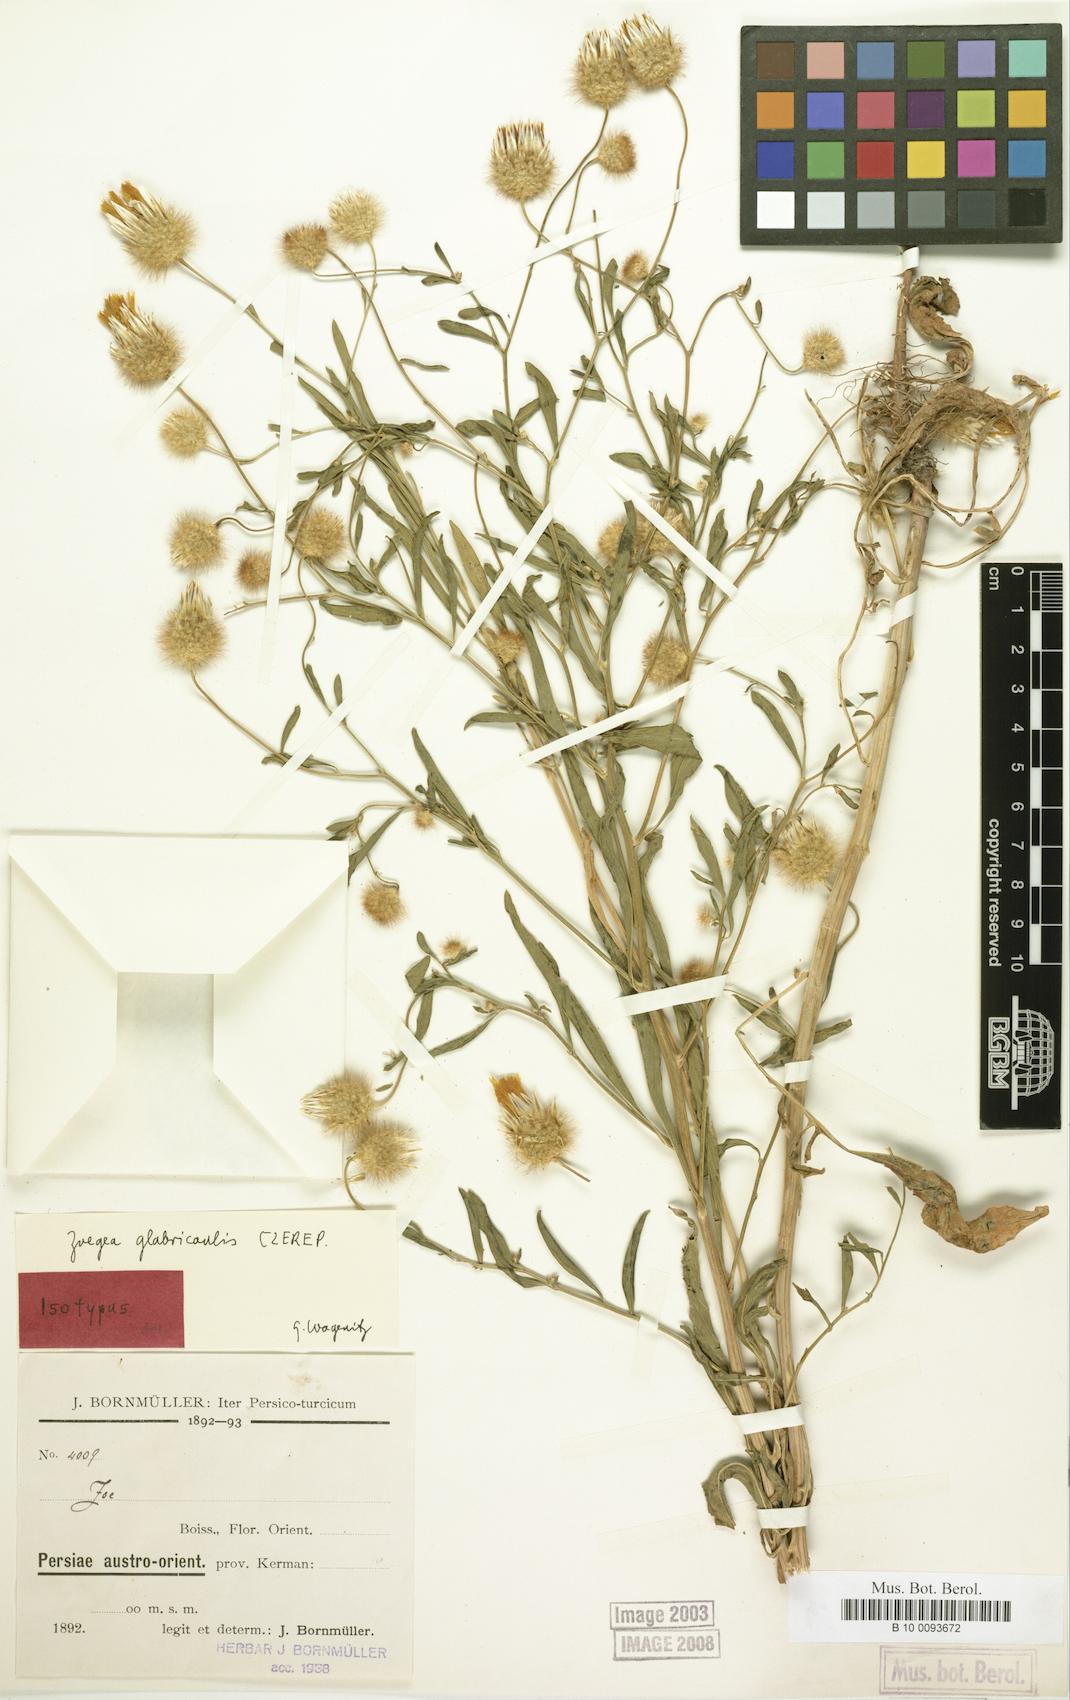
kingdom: Plantae
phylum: Tracheophyta
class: Magnoliopsida
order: Asterales
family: Asteraceae
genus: Zoegea
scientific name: Zoegea crinita
